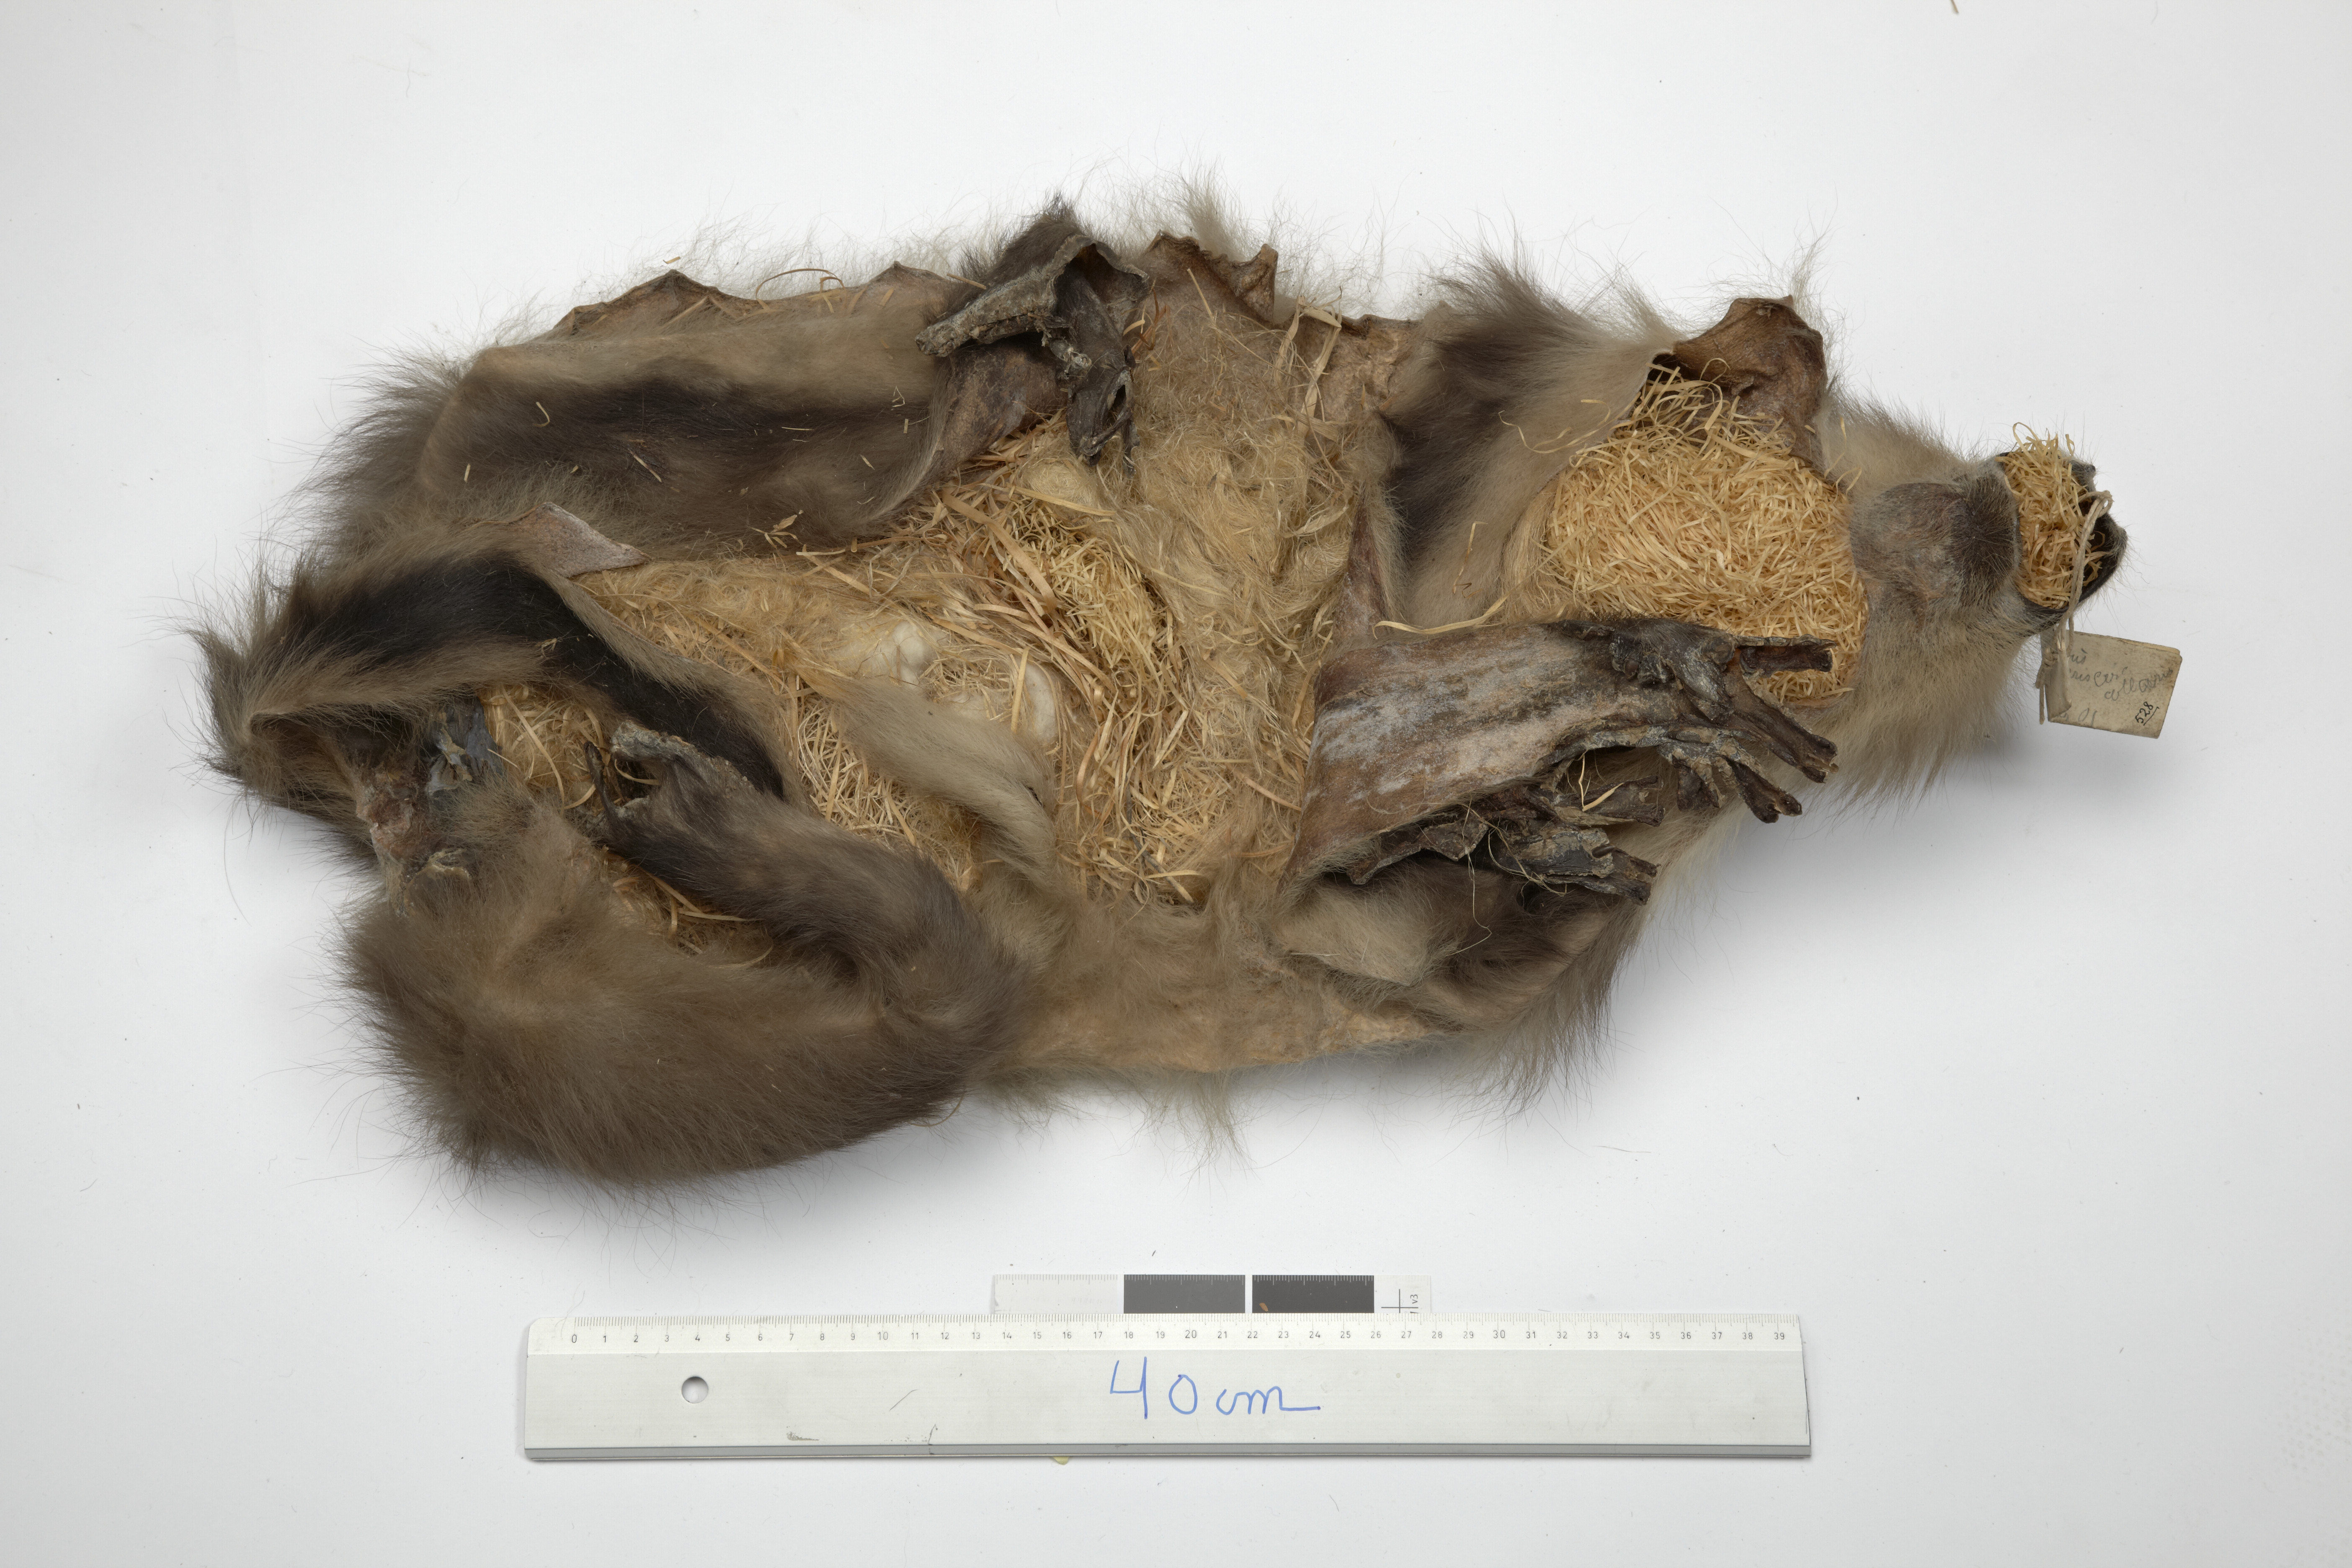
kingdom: Animalia
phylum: Chordata
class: Mammalia
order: Primates
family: Cercopithecidae
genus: Cercocebus
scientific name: Cercocebus torquatus
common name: Collared mangabey
